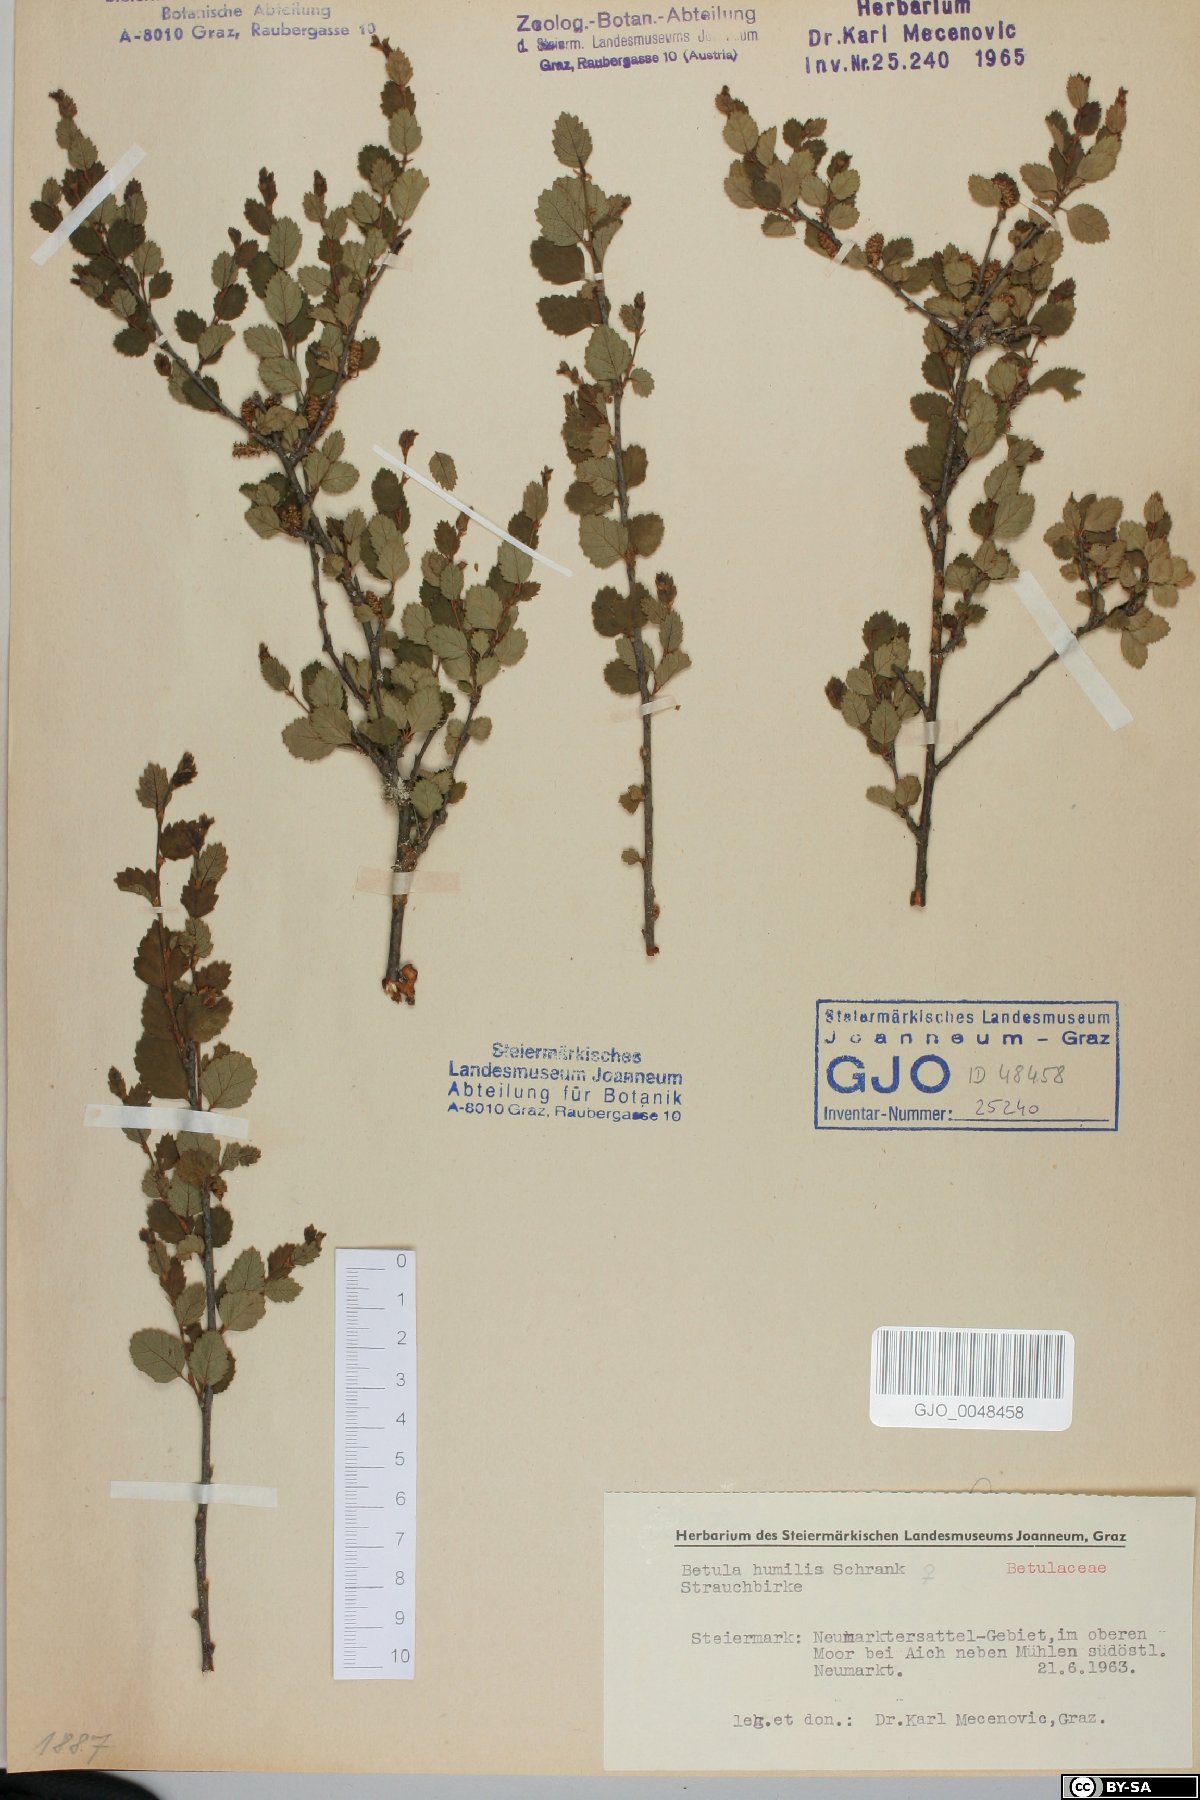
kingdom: Plantae
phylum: Tracheophyta
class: Magnoliopsida
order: Fagales
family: Betulaceae
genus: Betula
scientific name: Betula humilis
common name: Shrubby birch
